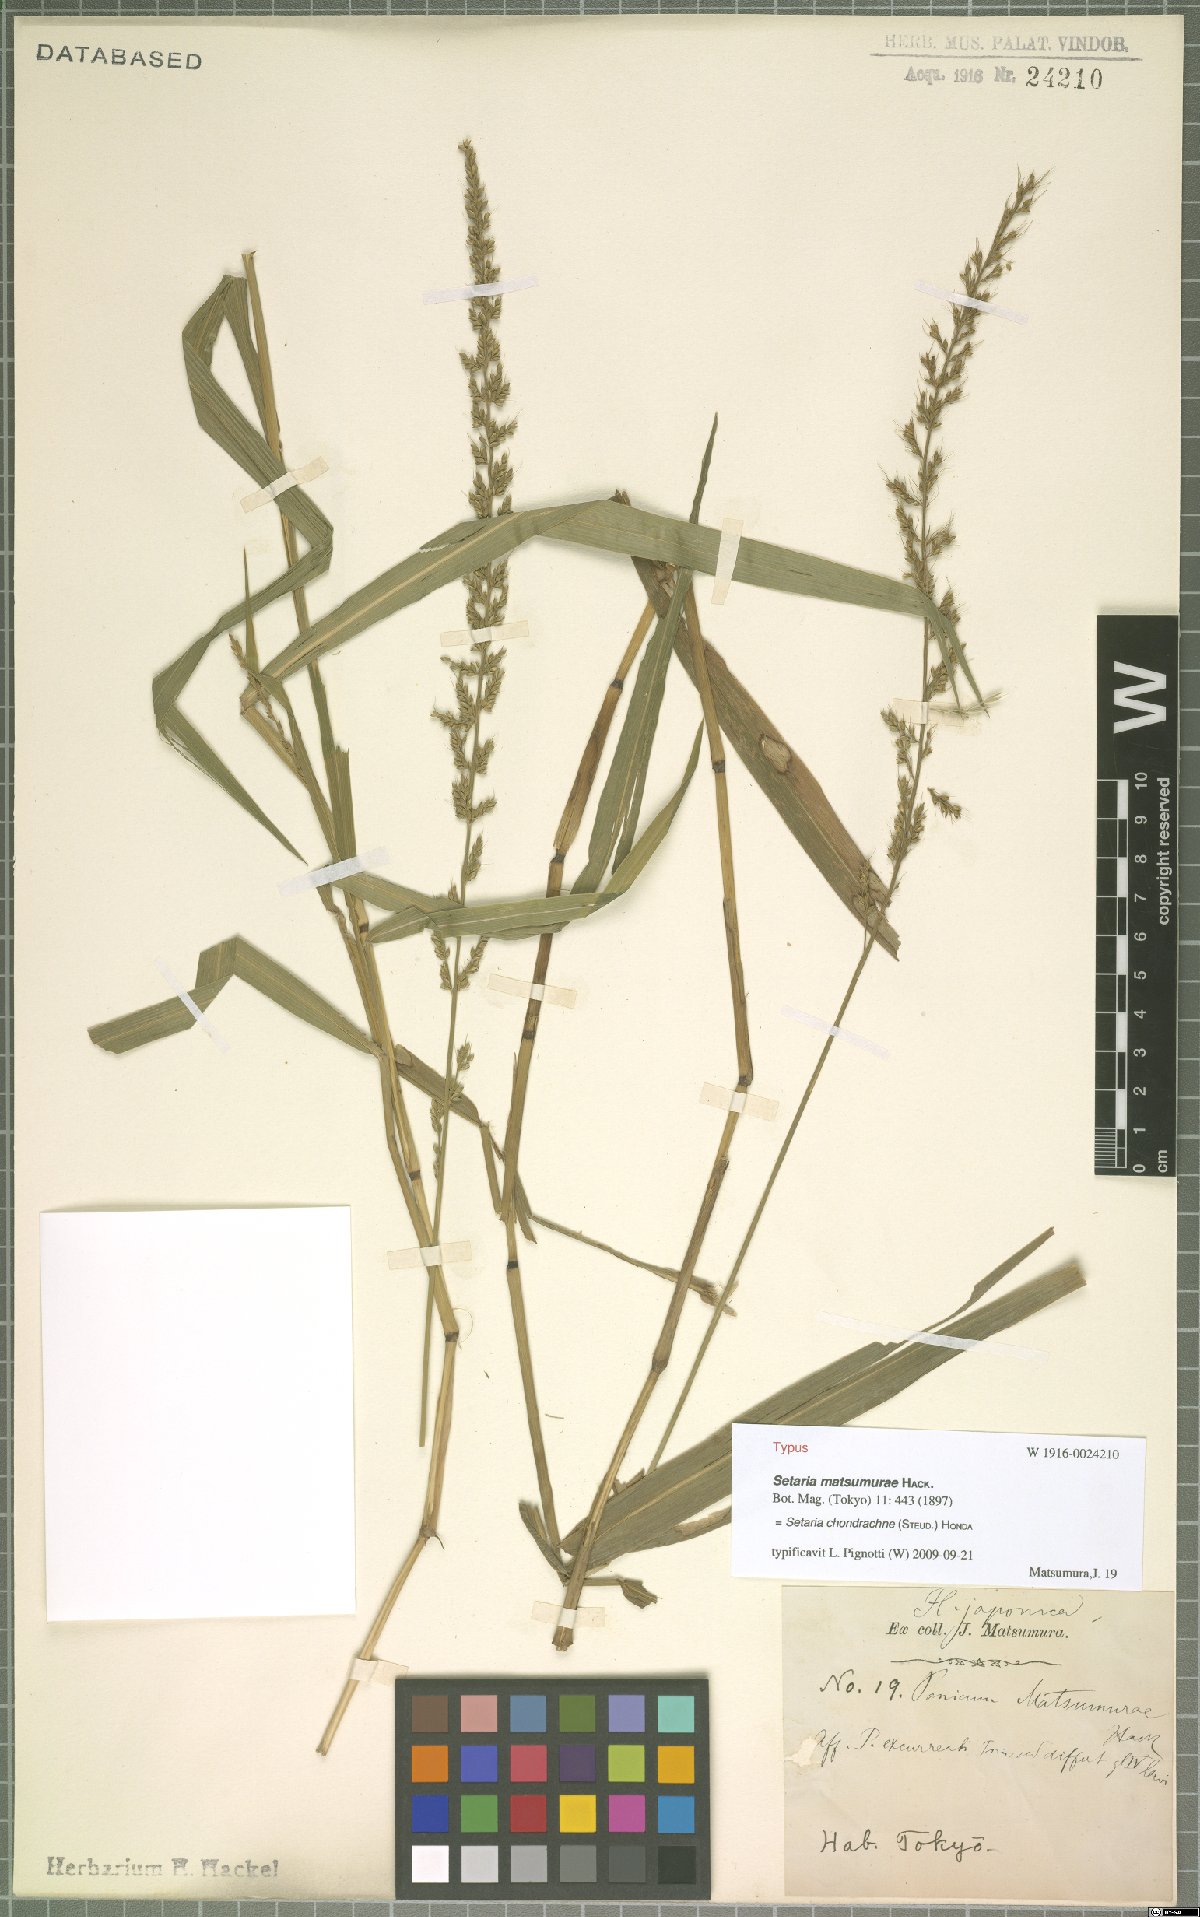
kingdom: Plantae
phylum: Tracheophyta
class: Liliopsida
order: Poales
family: Poaceae
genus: Setaria
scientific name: Setaria chondrachne
